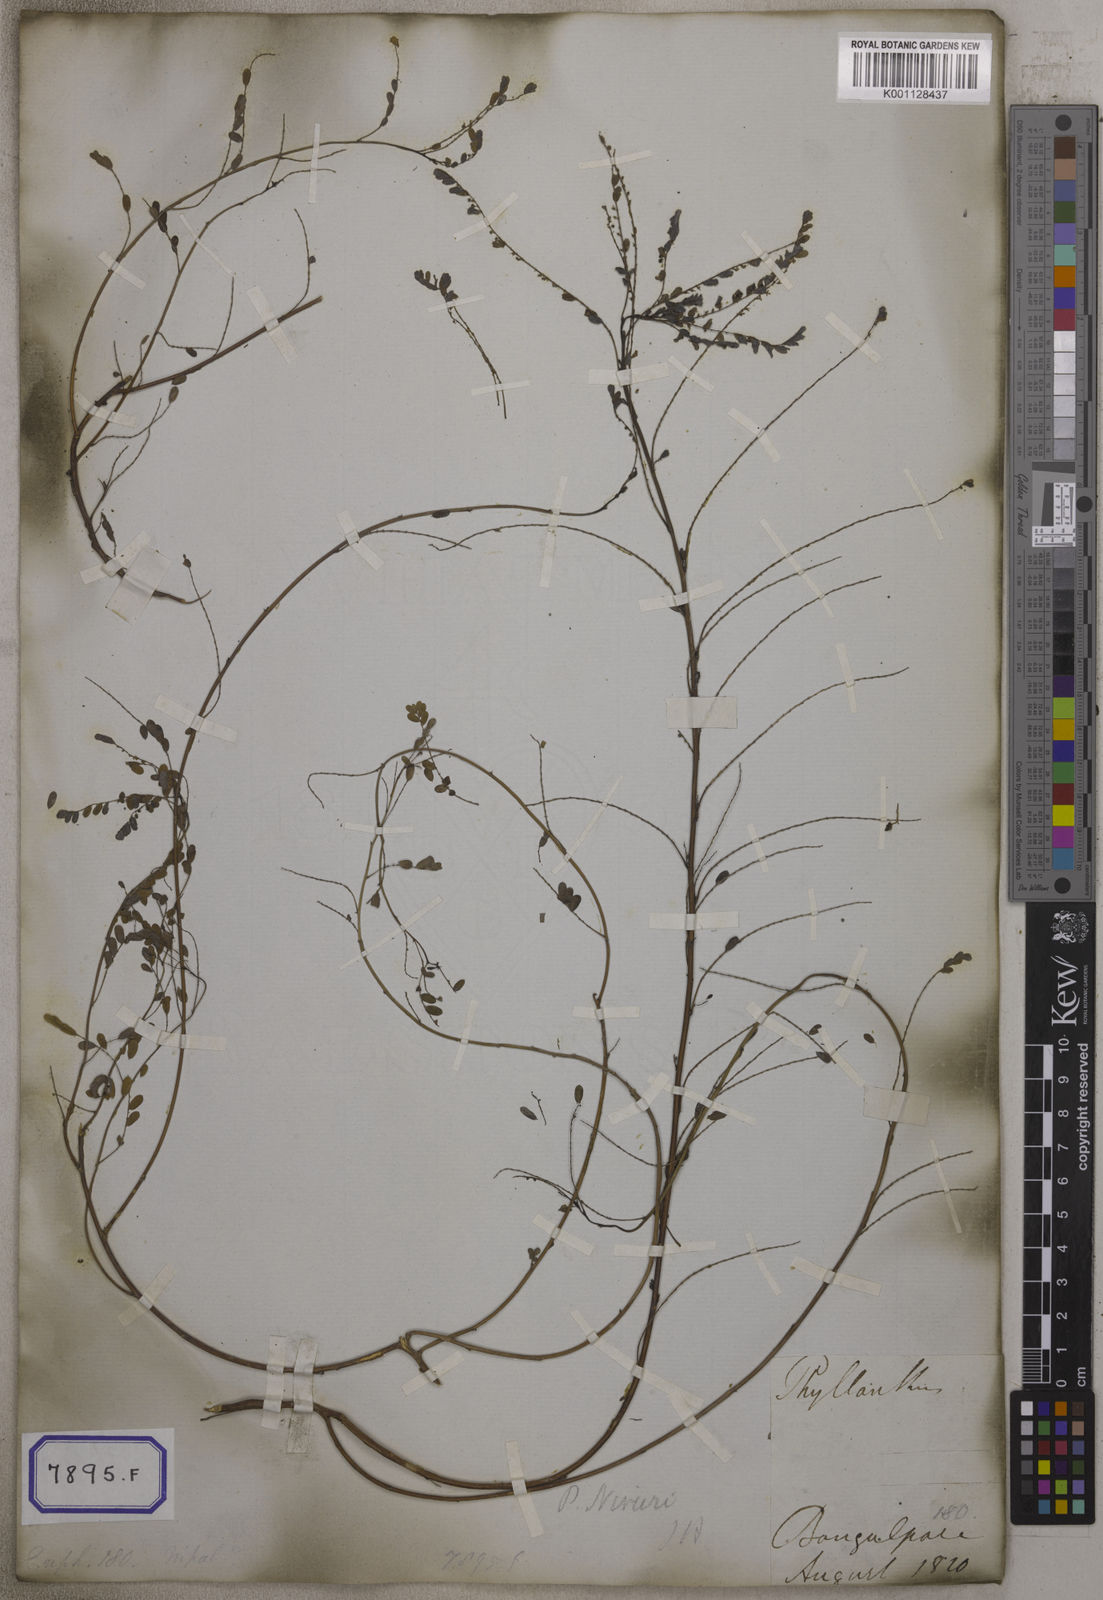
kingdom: Plantae
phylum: Tracheophyta
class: Magnoliopsida
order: Malpighiales
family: Euphorbiaceae
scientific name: Euphorbiaceae
